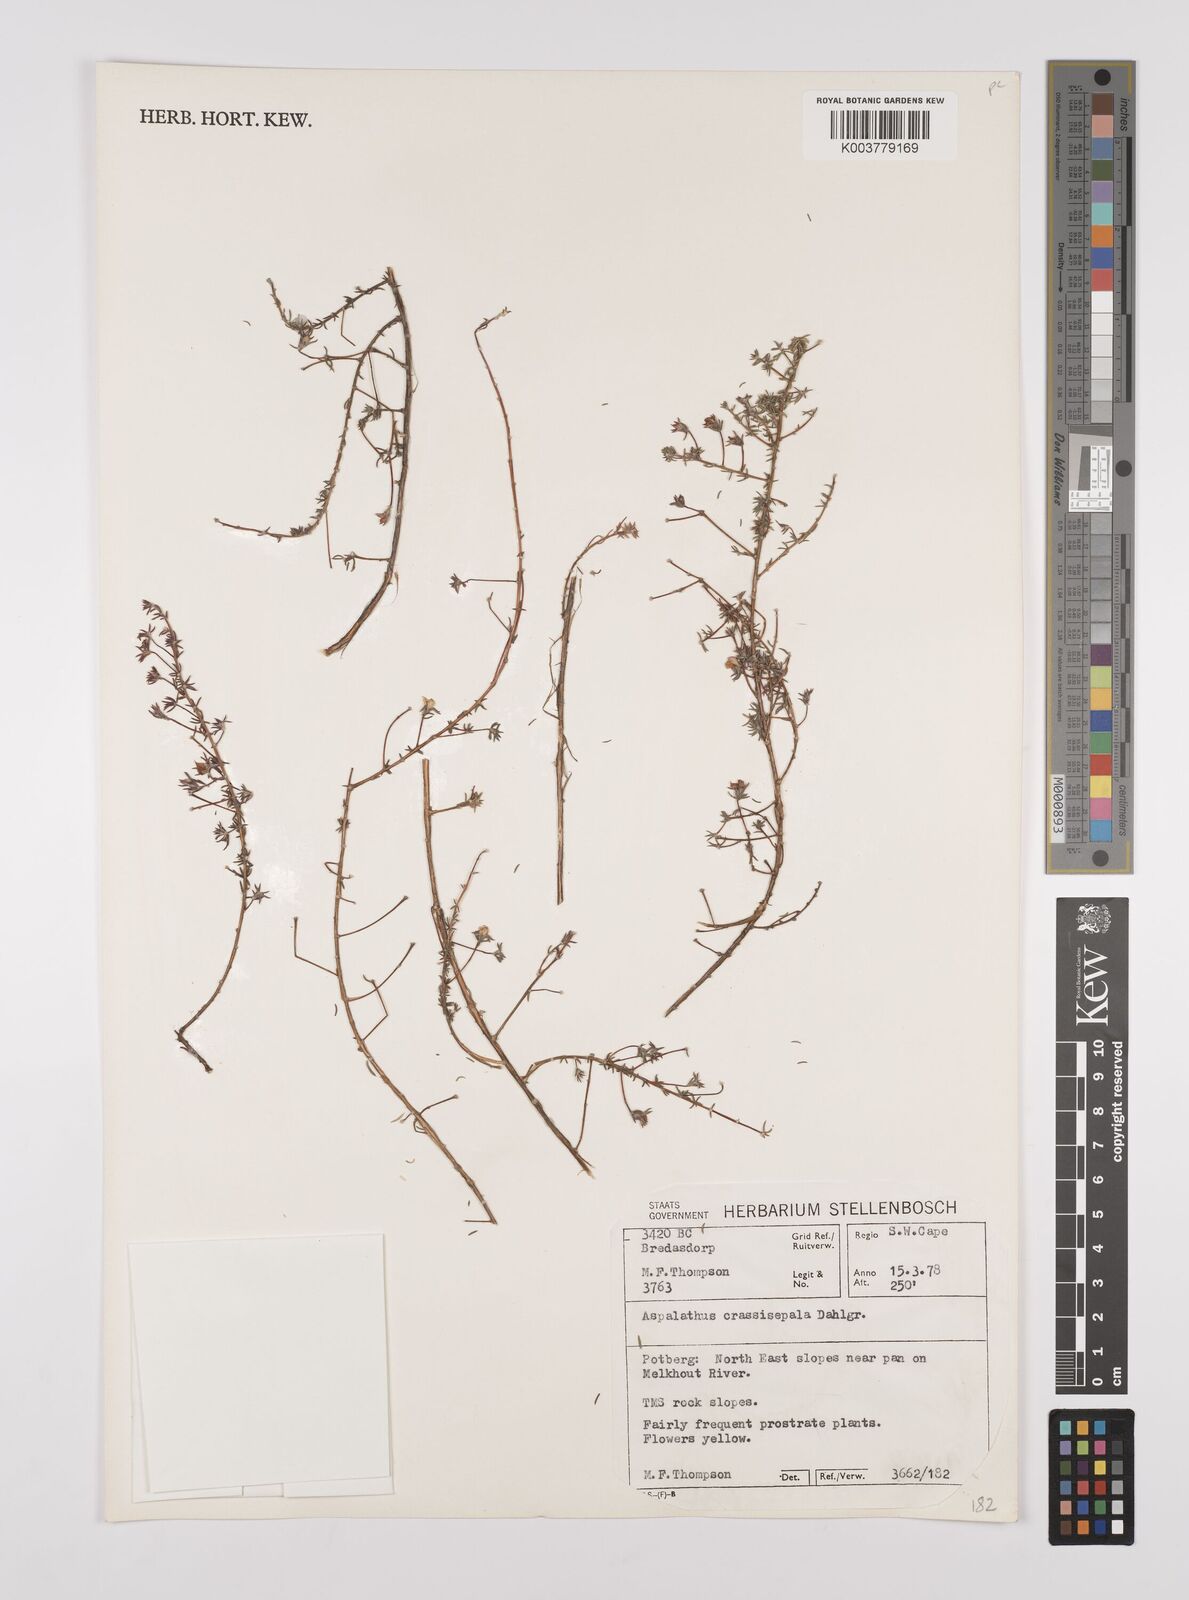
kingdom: Plantae
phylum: Tracheophyta
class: Magnoliopsida
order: Fabales
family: Fabaceae
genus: Aspalathus
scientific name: Aspalathus crassisepala
